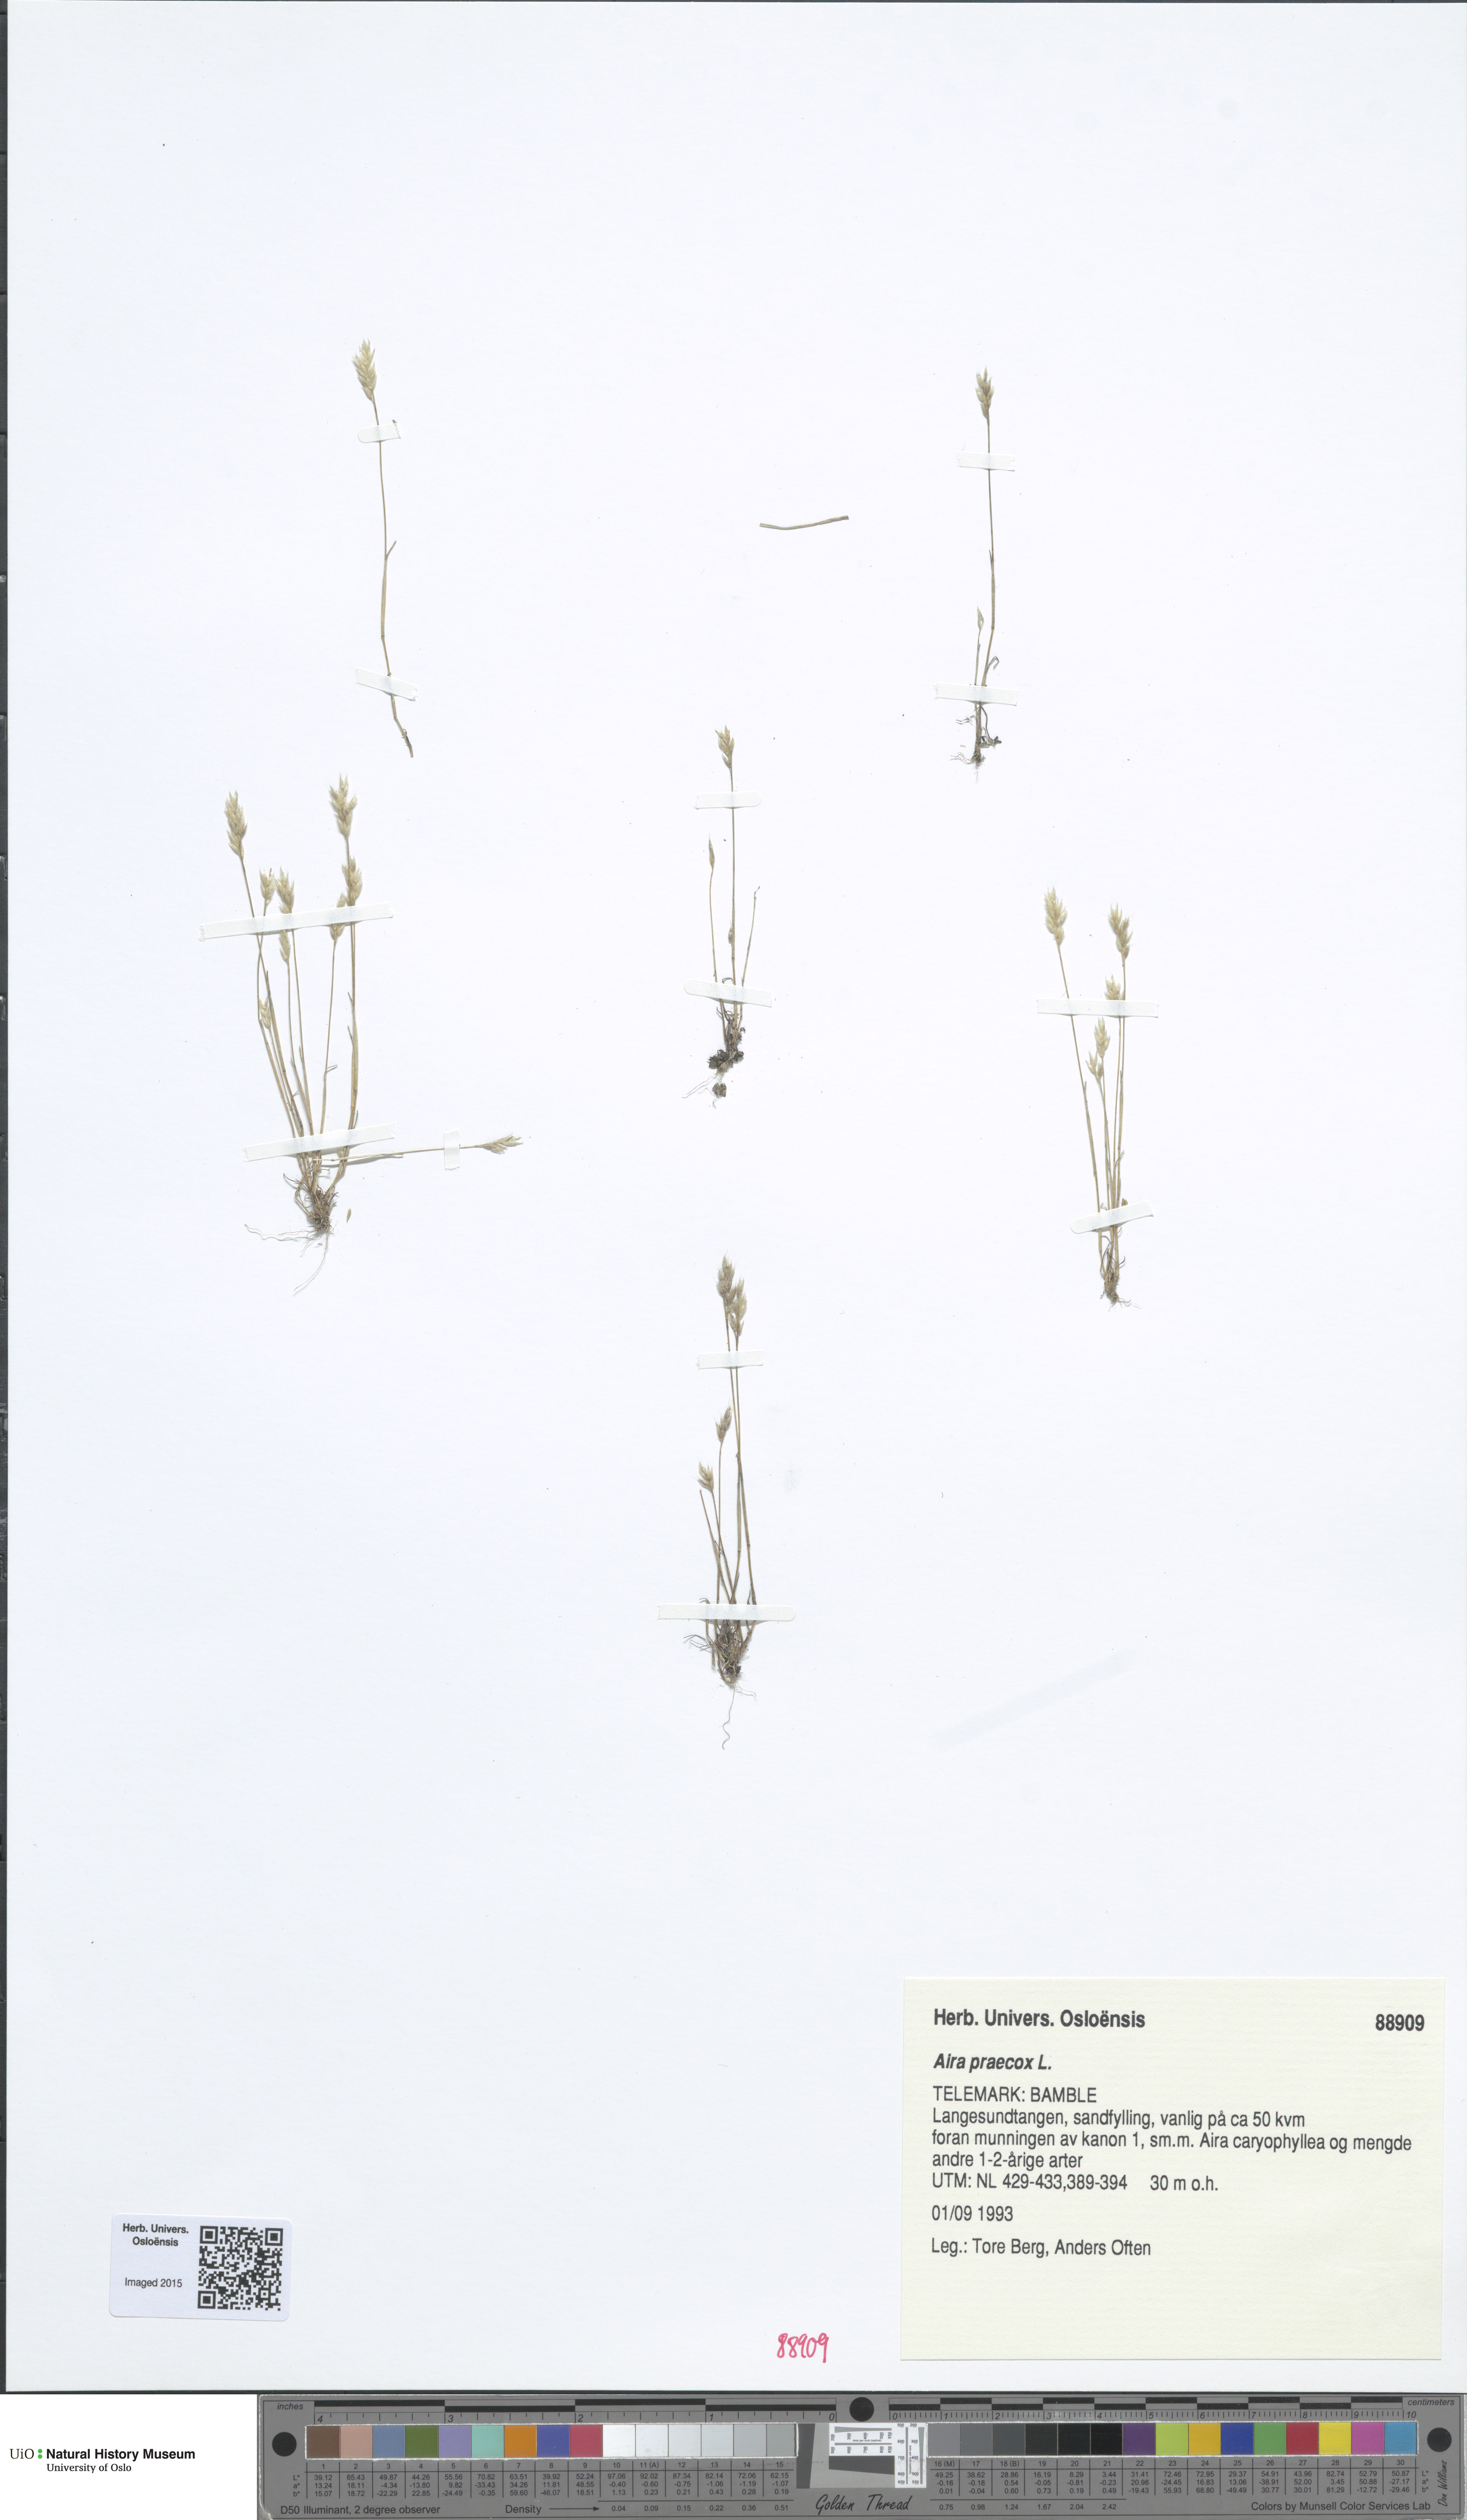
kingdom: Plantae
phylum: Tracheophyta
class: Liliopsida
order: Poales
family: Poaceae
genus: Aira
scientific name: Aira praecox
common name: Early hair-grass
